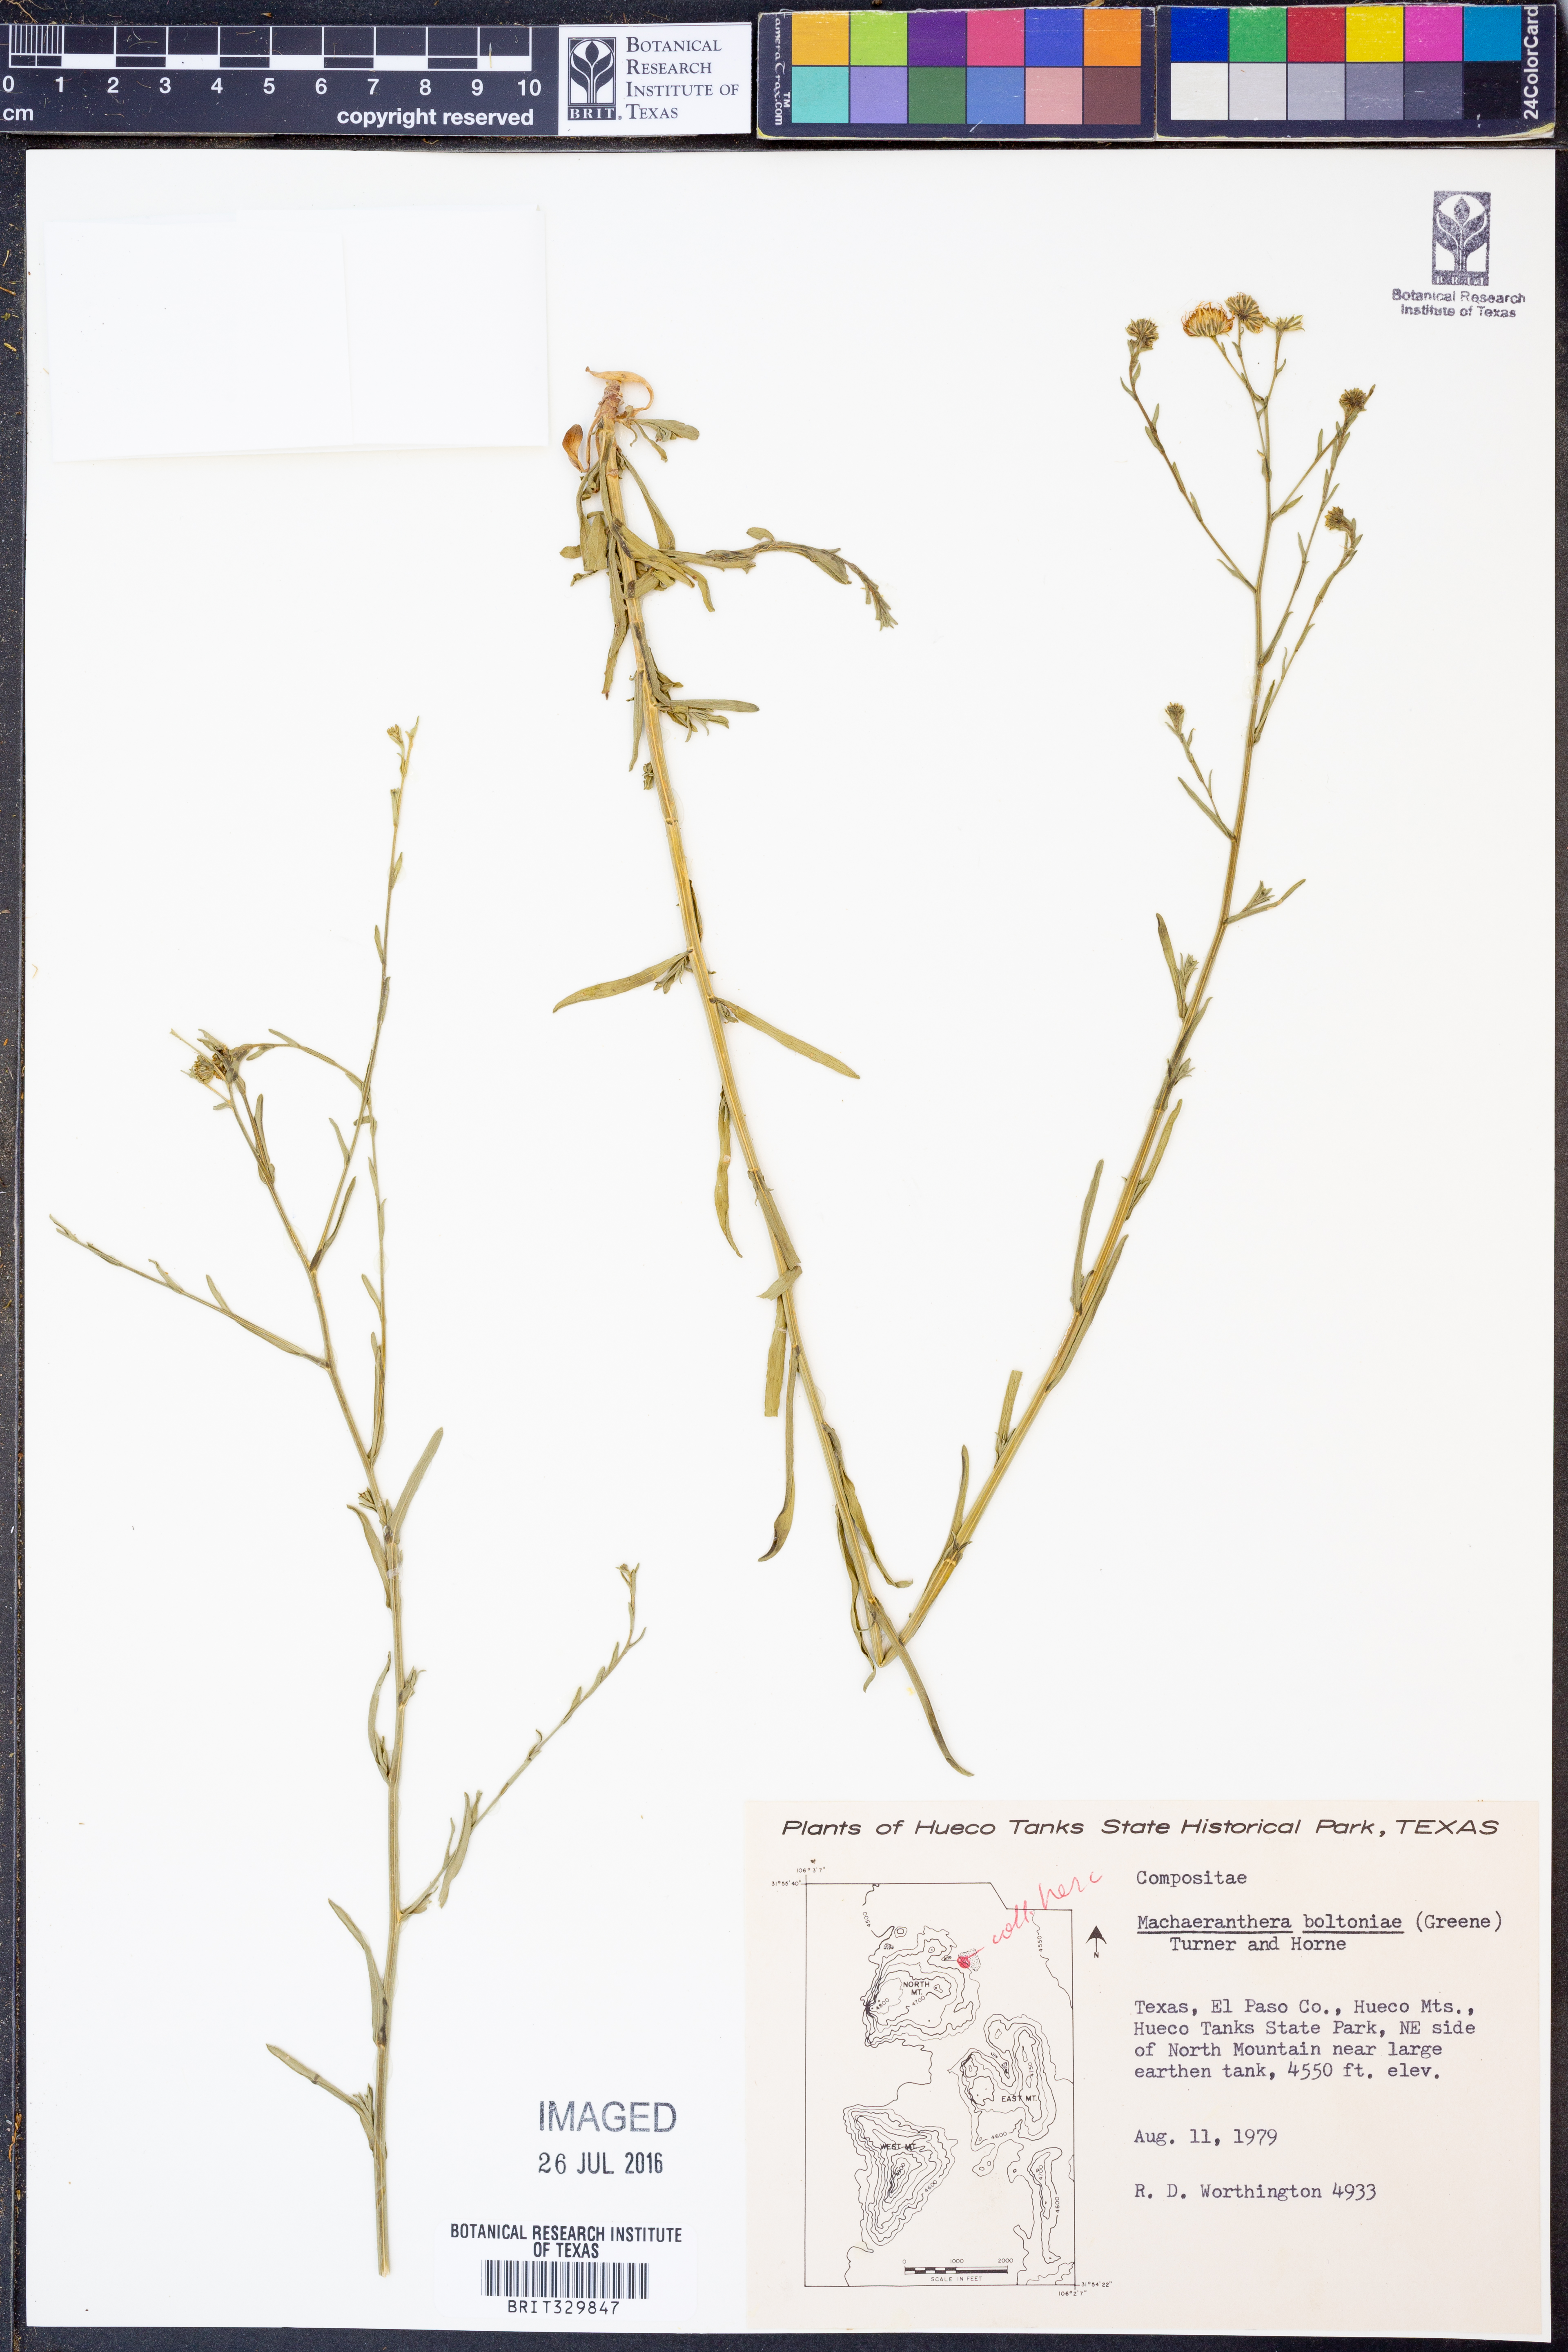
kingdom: Plantae
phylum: Tracheophyta
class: Magnoliopsida
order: Asterales
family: Asteraceae
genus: Psilactis
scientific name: Psilactis asteroides
